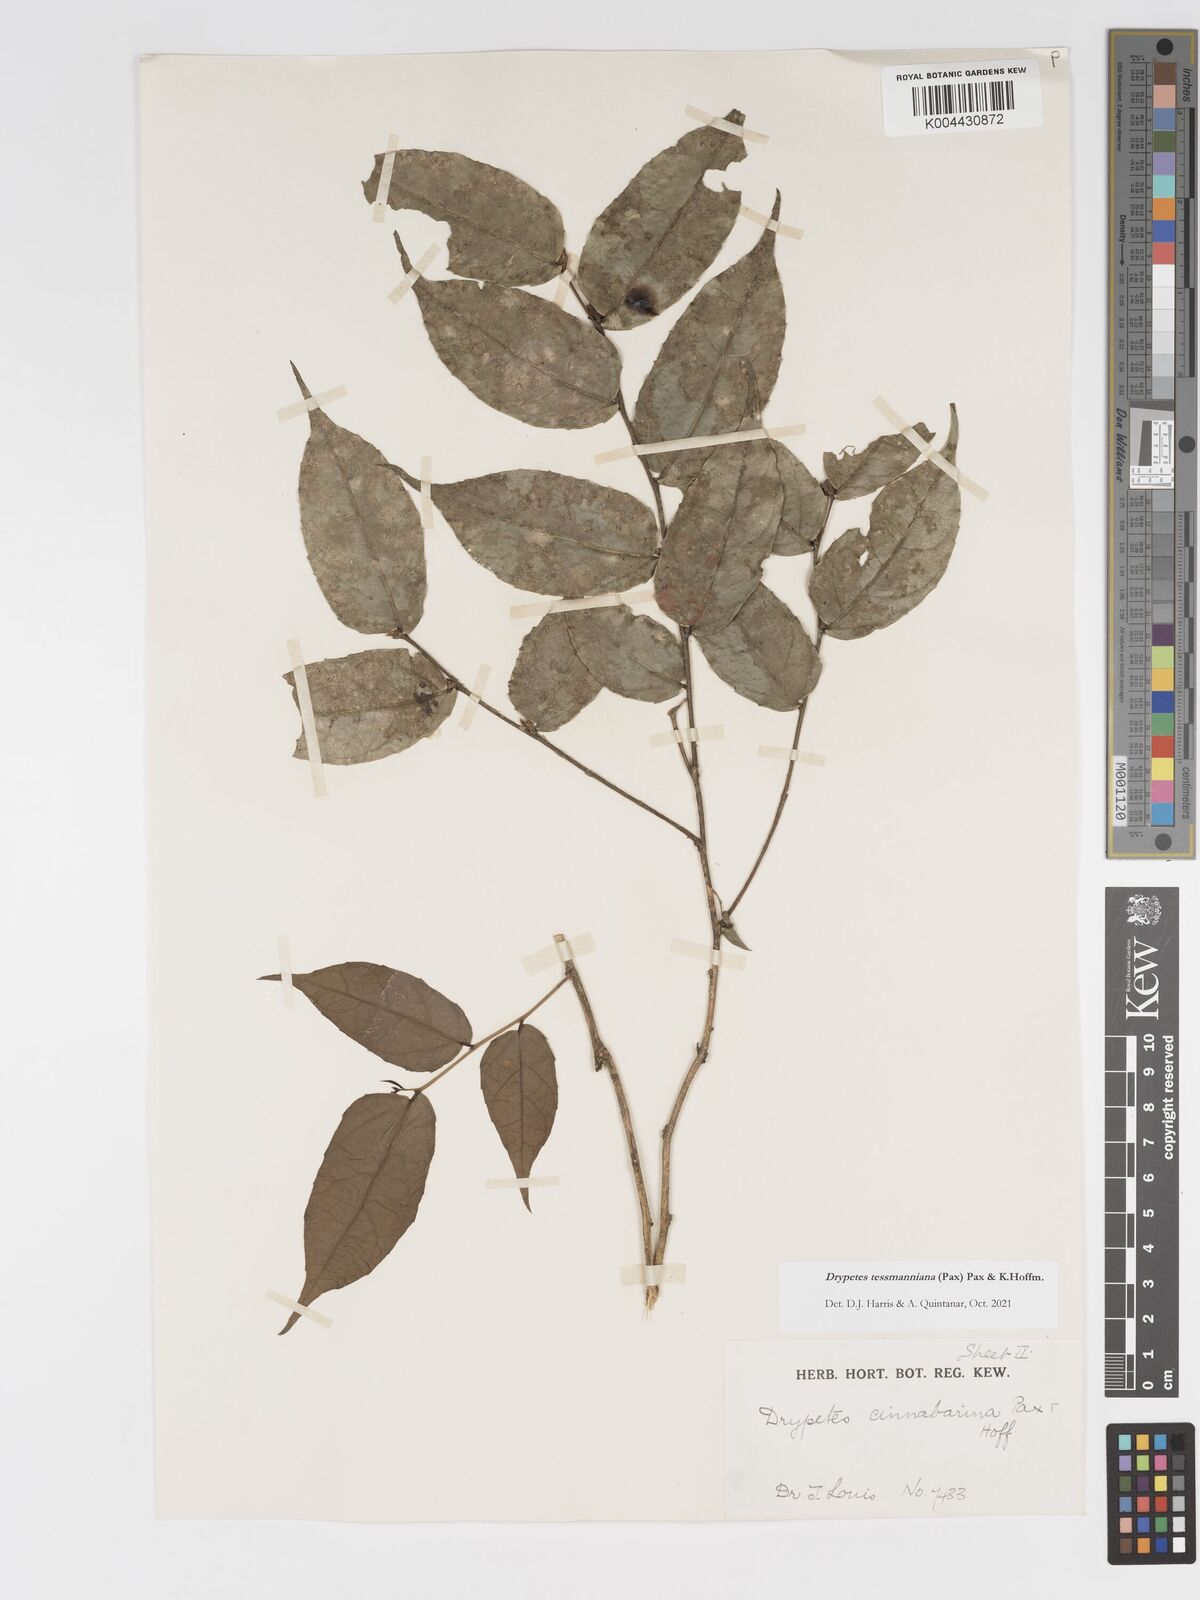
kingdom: Plantae
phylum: Tracheophyta
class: Magnoliopsida
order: Malpighiales
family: Putranjivaceae
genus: Drypetes
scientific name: Drypetes tessmanniana
